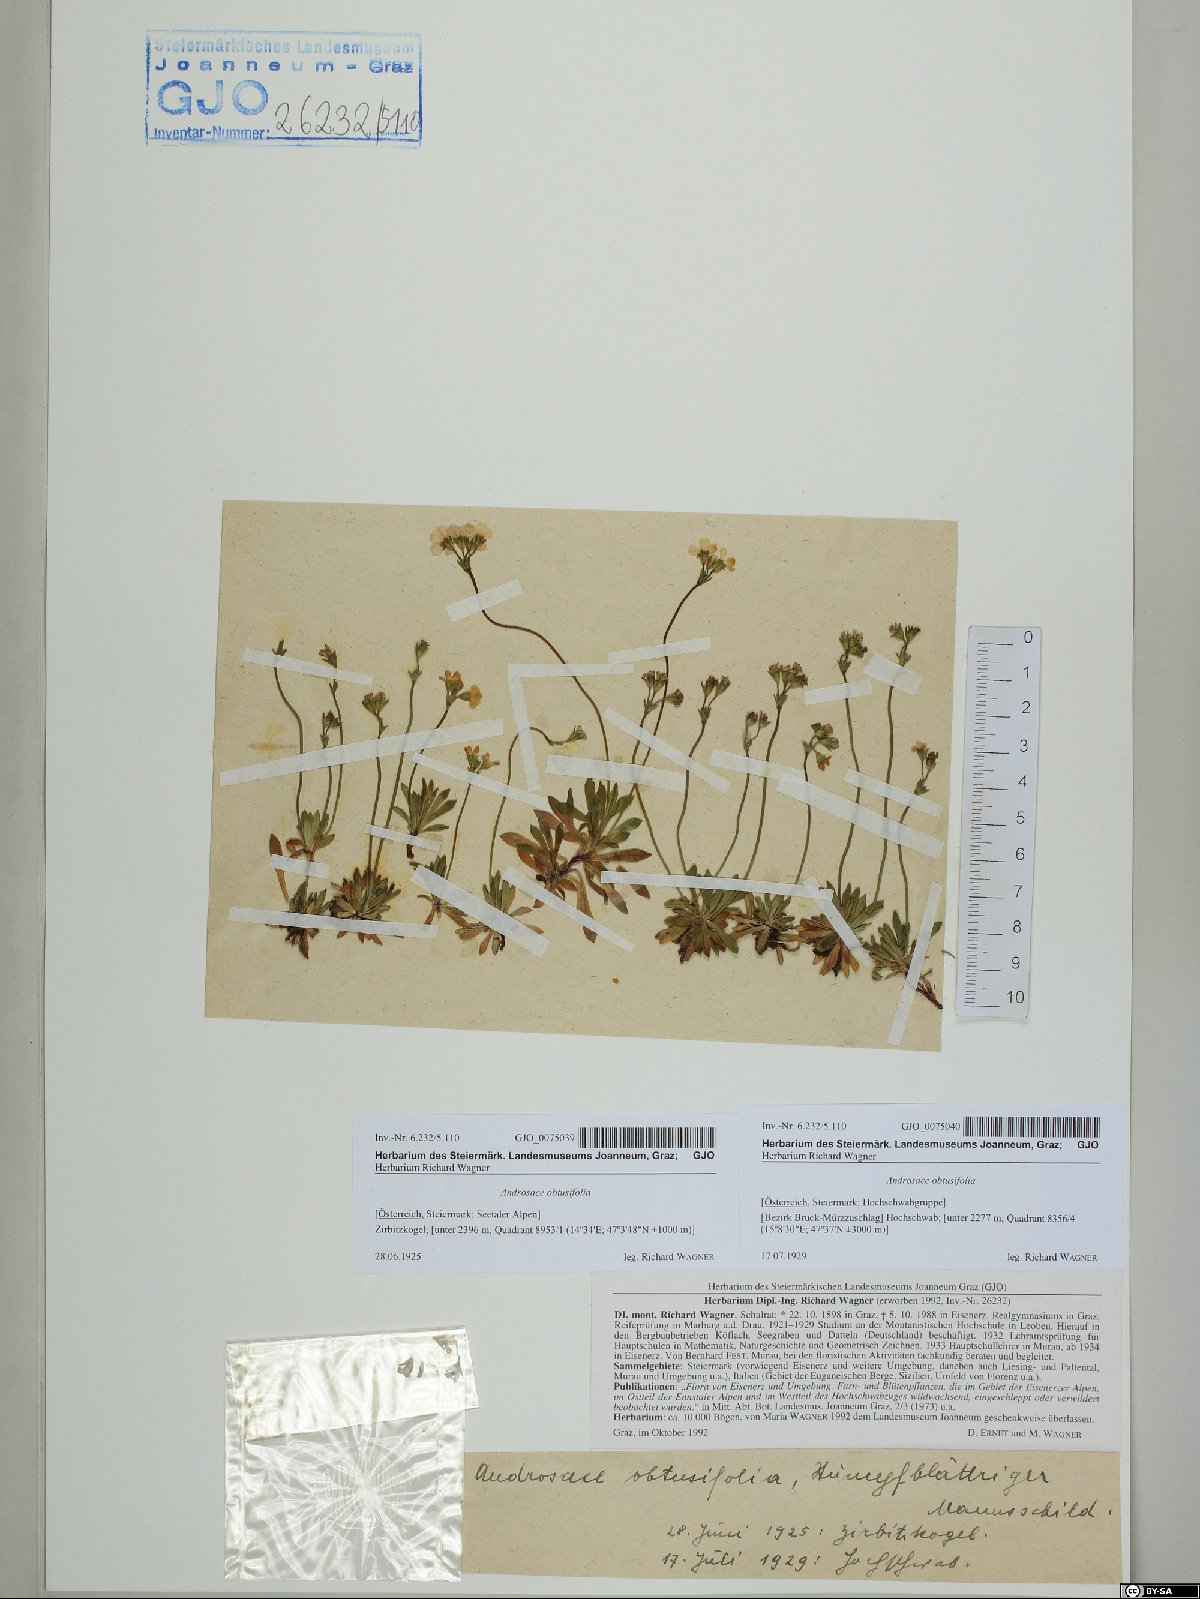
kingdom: Plantae
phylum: Tracheophyta
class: Magnoliopsida
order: Ericales
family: Primulaceae
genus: Androsace
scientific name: Androsace obtusifolia
